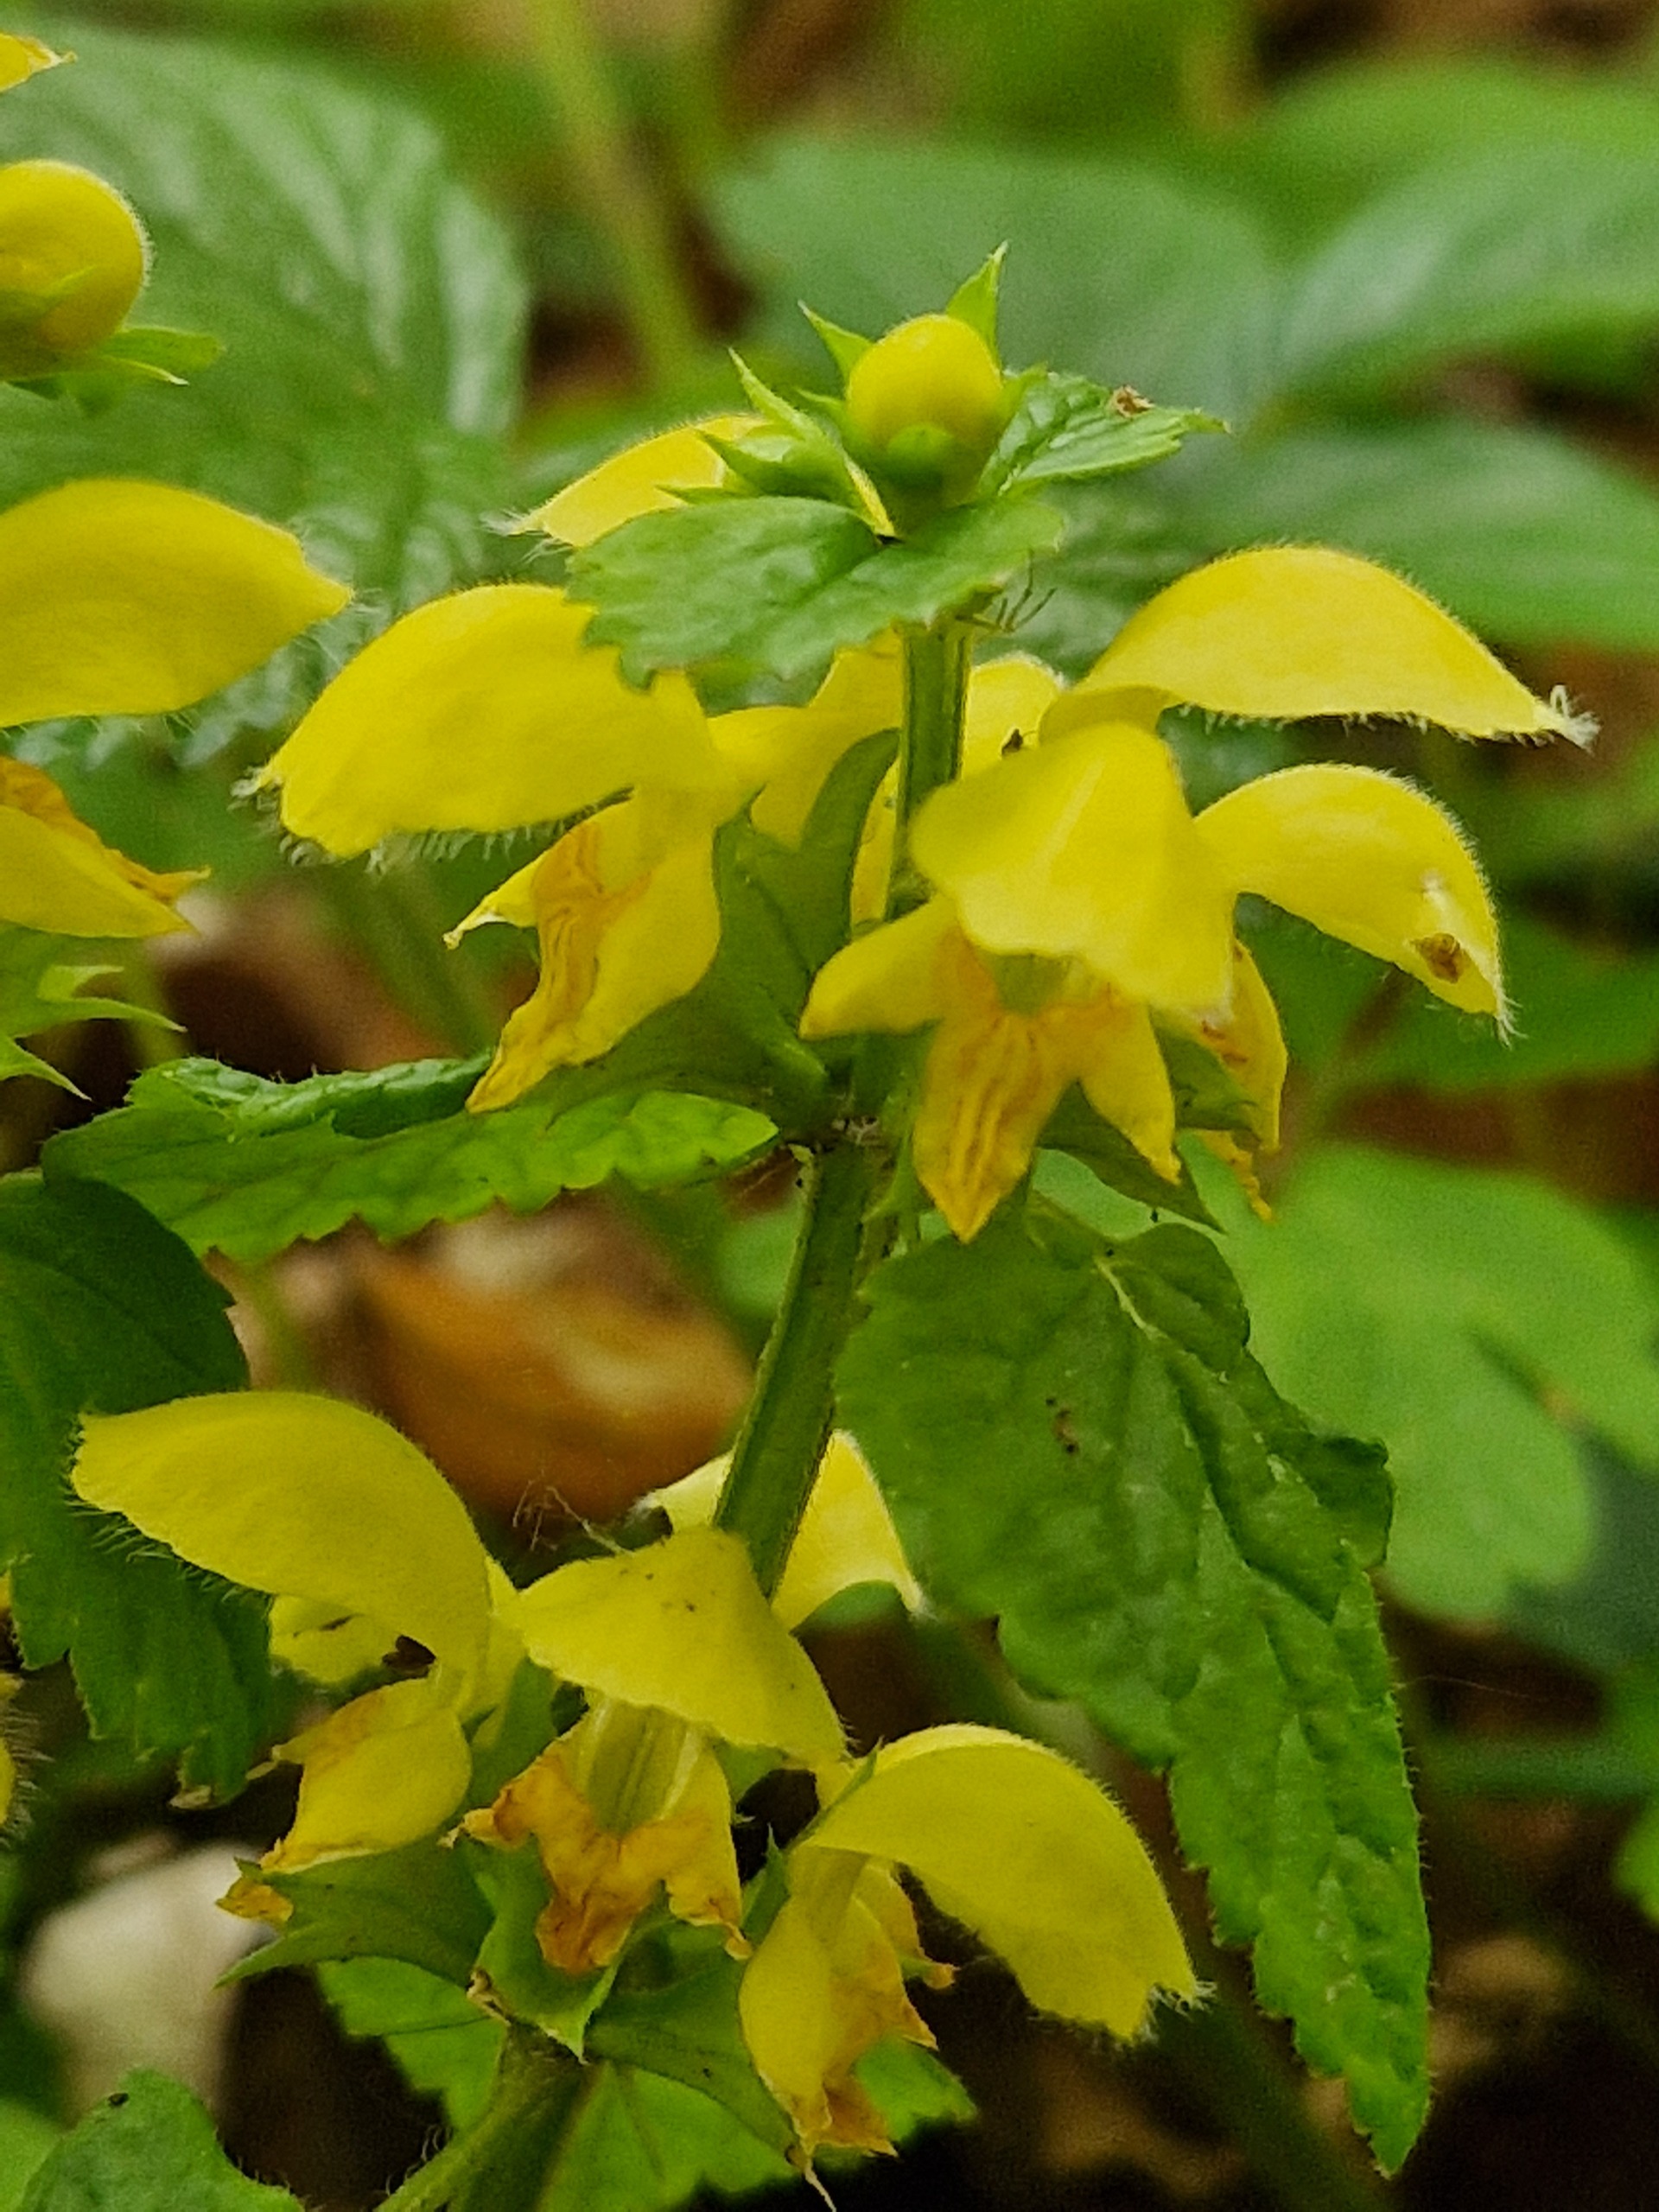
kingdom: Plantae
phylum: Tracheophyta
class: Magnoliopsida
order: Lamiales
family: Lamiaceae
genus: Lamium
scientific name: Lamium galeobdolon
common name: Guldnælde
